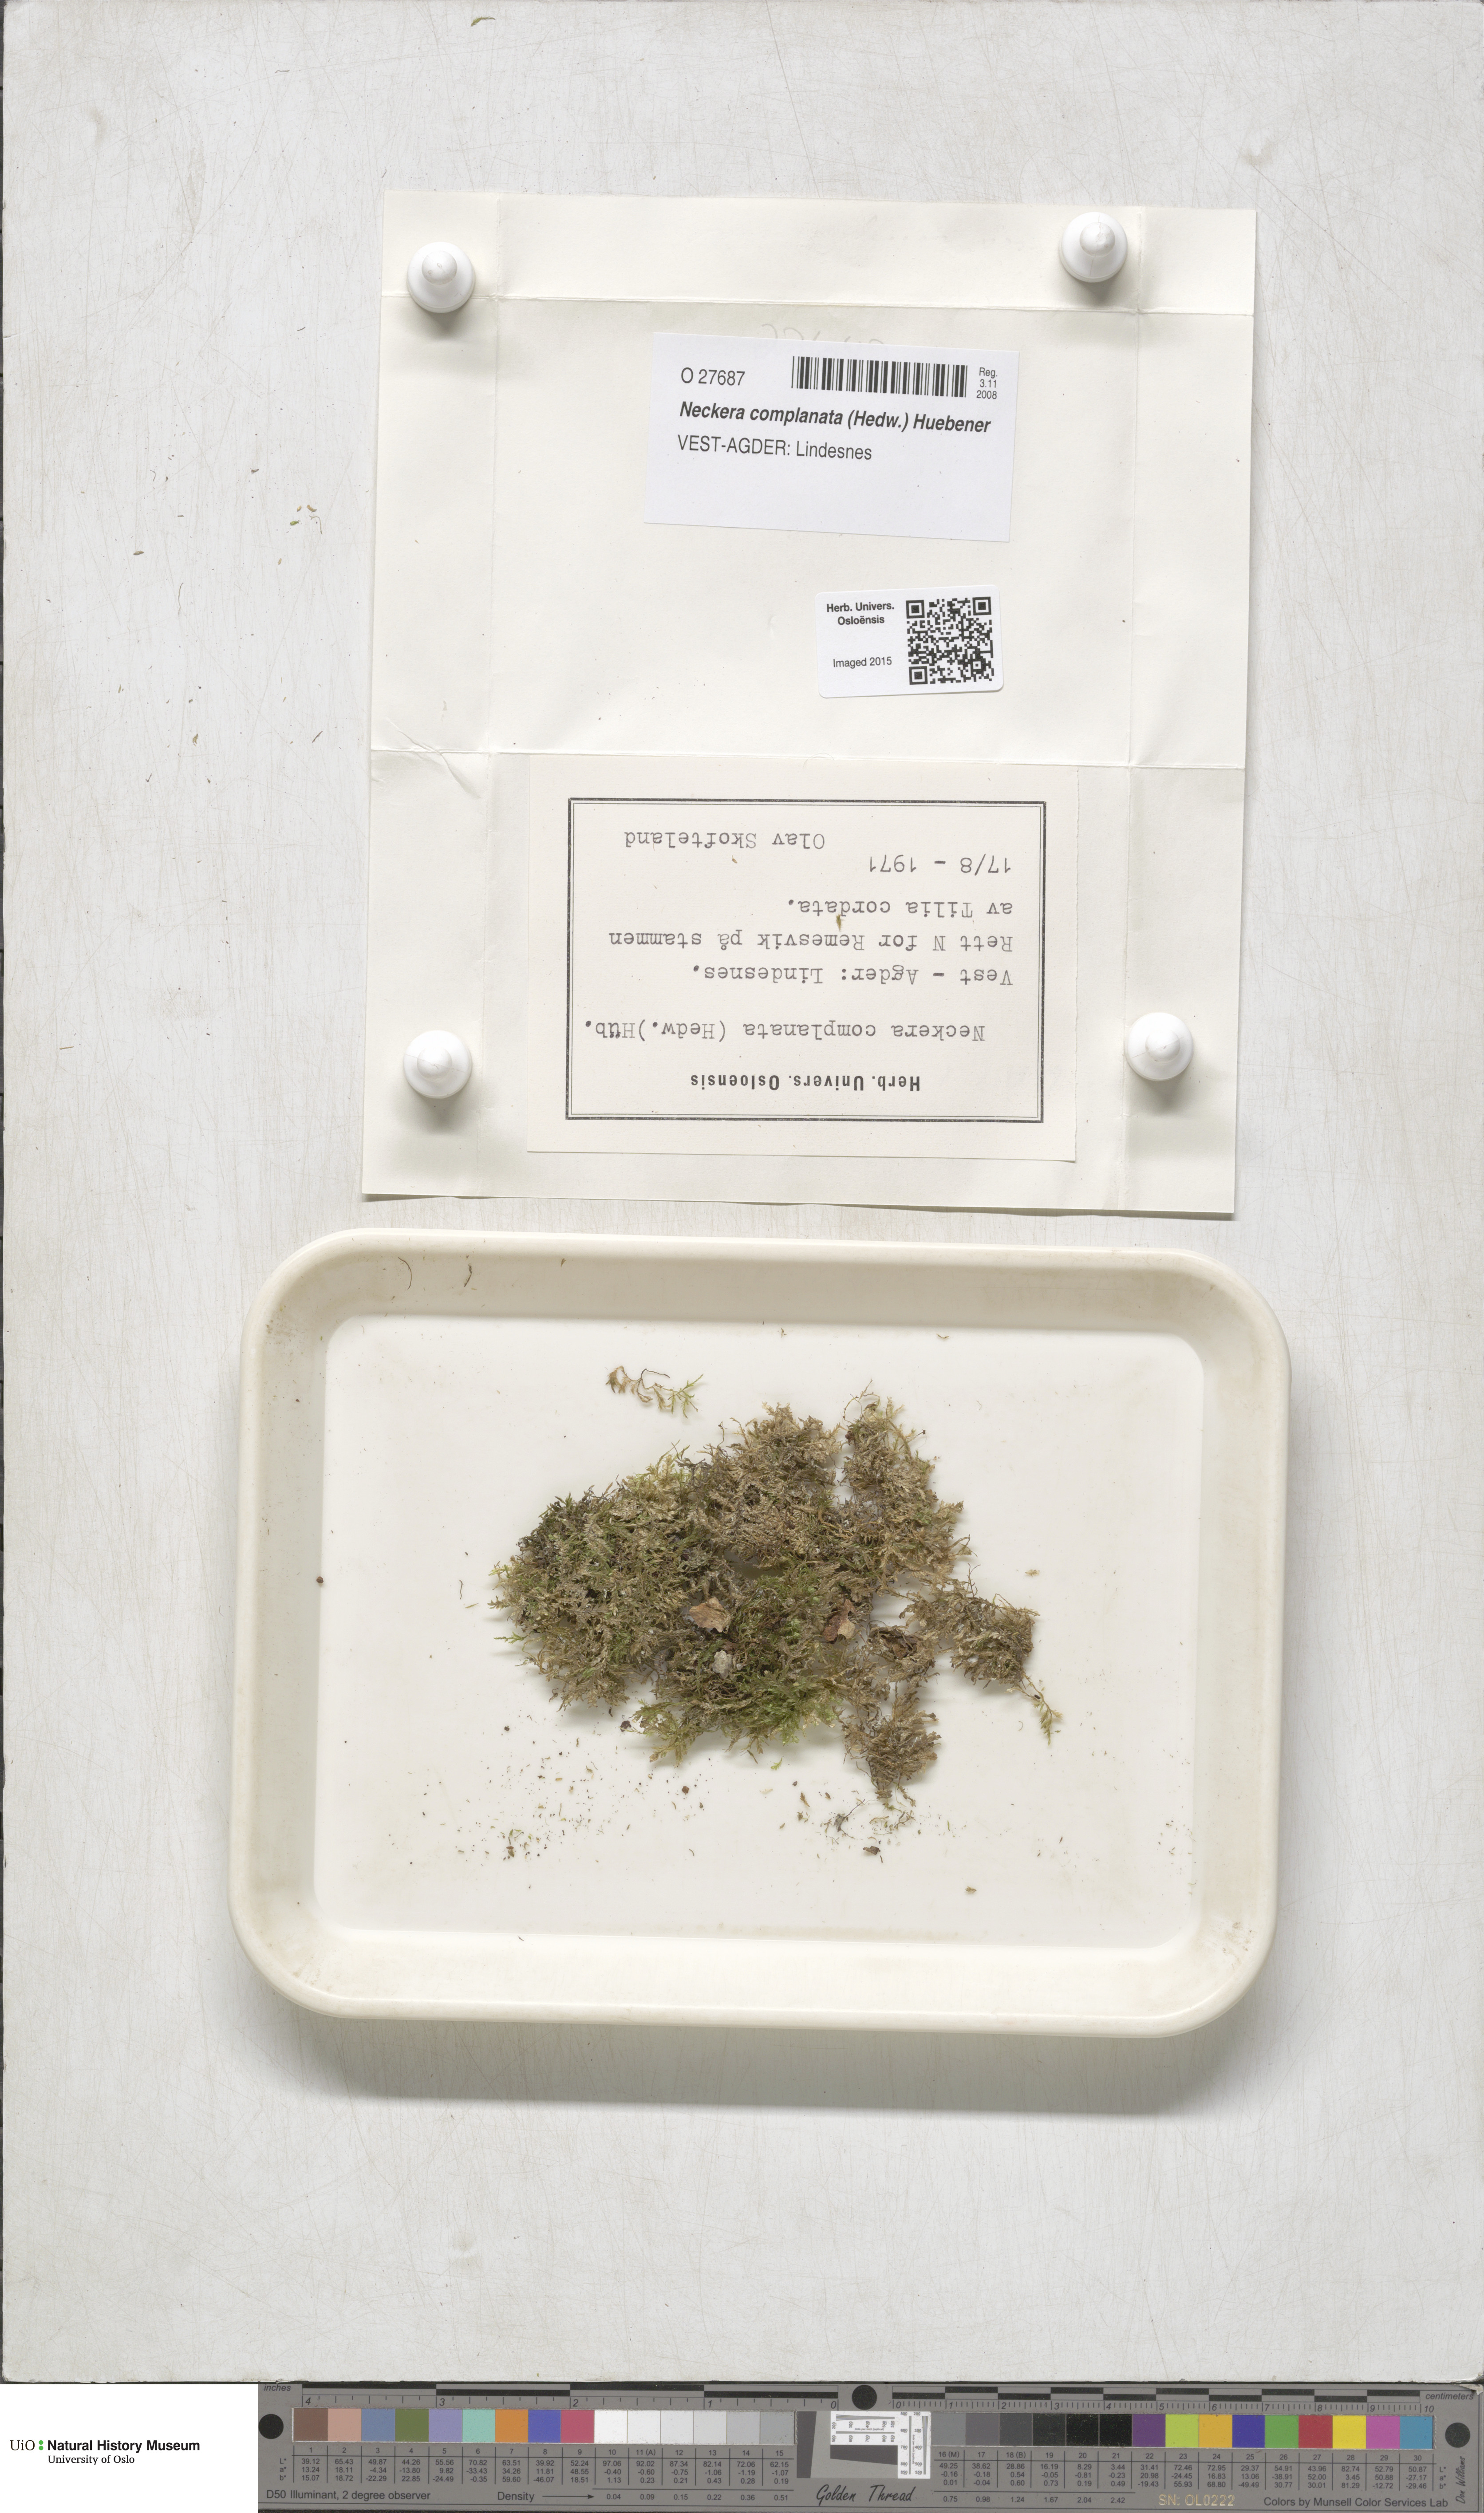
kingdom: Plantae
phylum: Bryophyta
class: Bryopsida
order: Hypnales
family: Neckeraceae
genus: Alleniella
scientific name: Alleniella complanata
